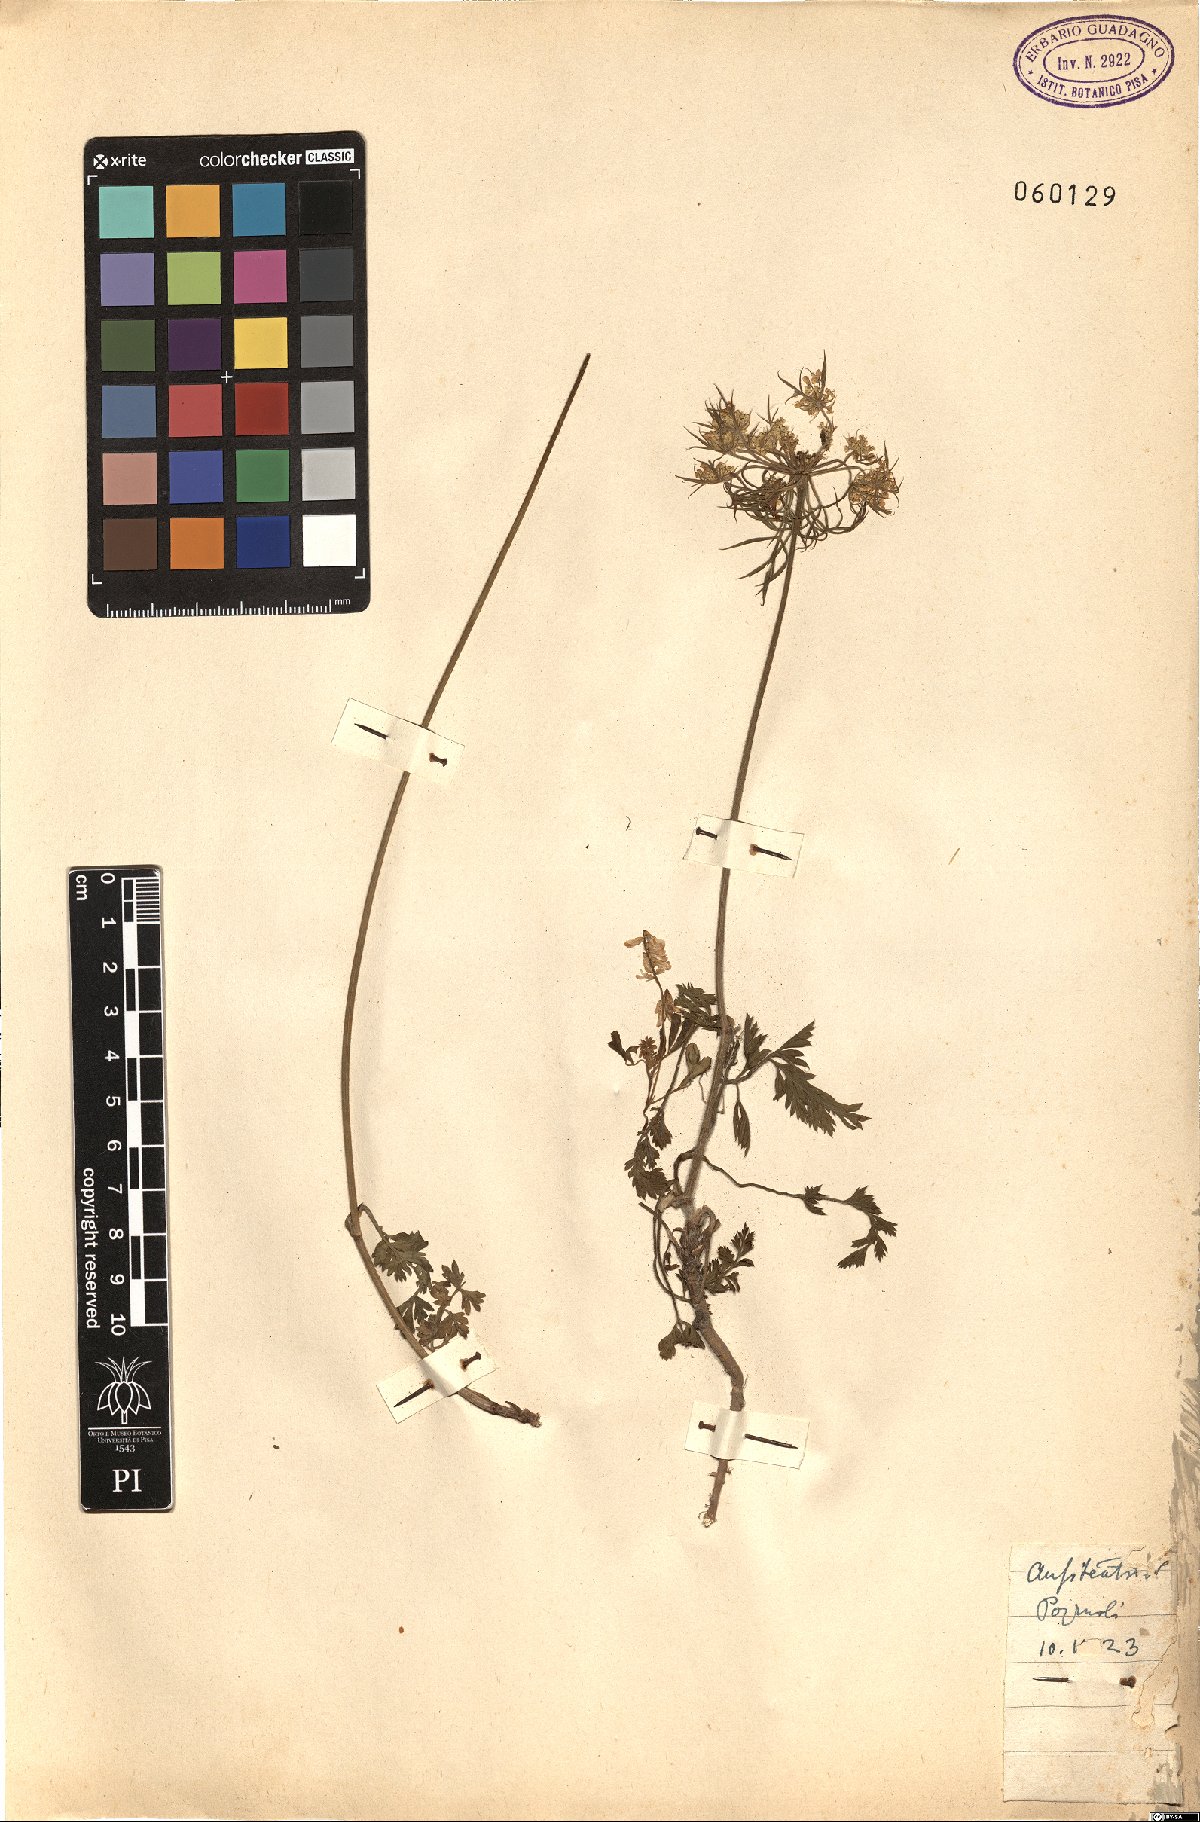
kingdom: Plantae
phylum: Tracheophyta
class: Magnoliopsida
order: Apiales
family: Apiaceae
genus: Daucus
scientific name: Daucus
